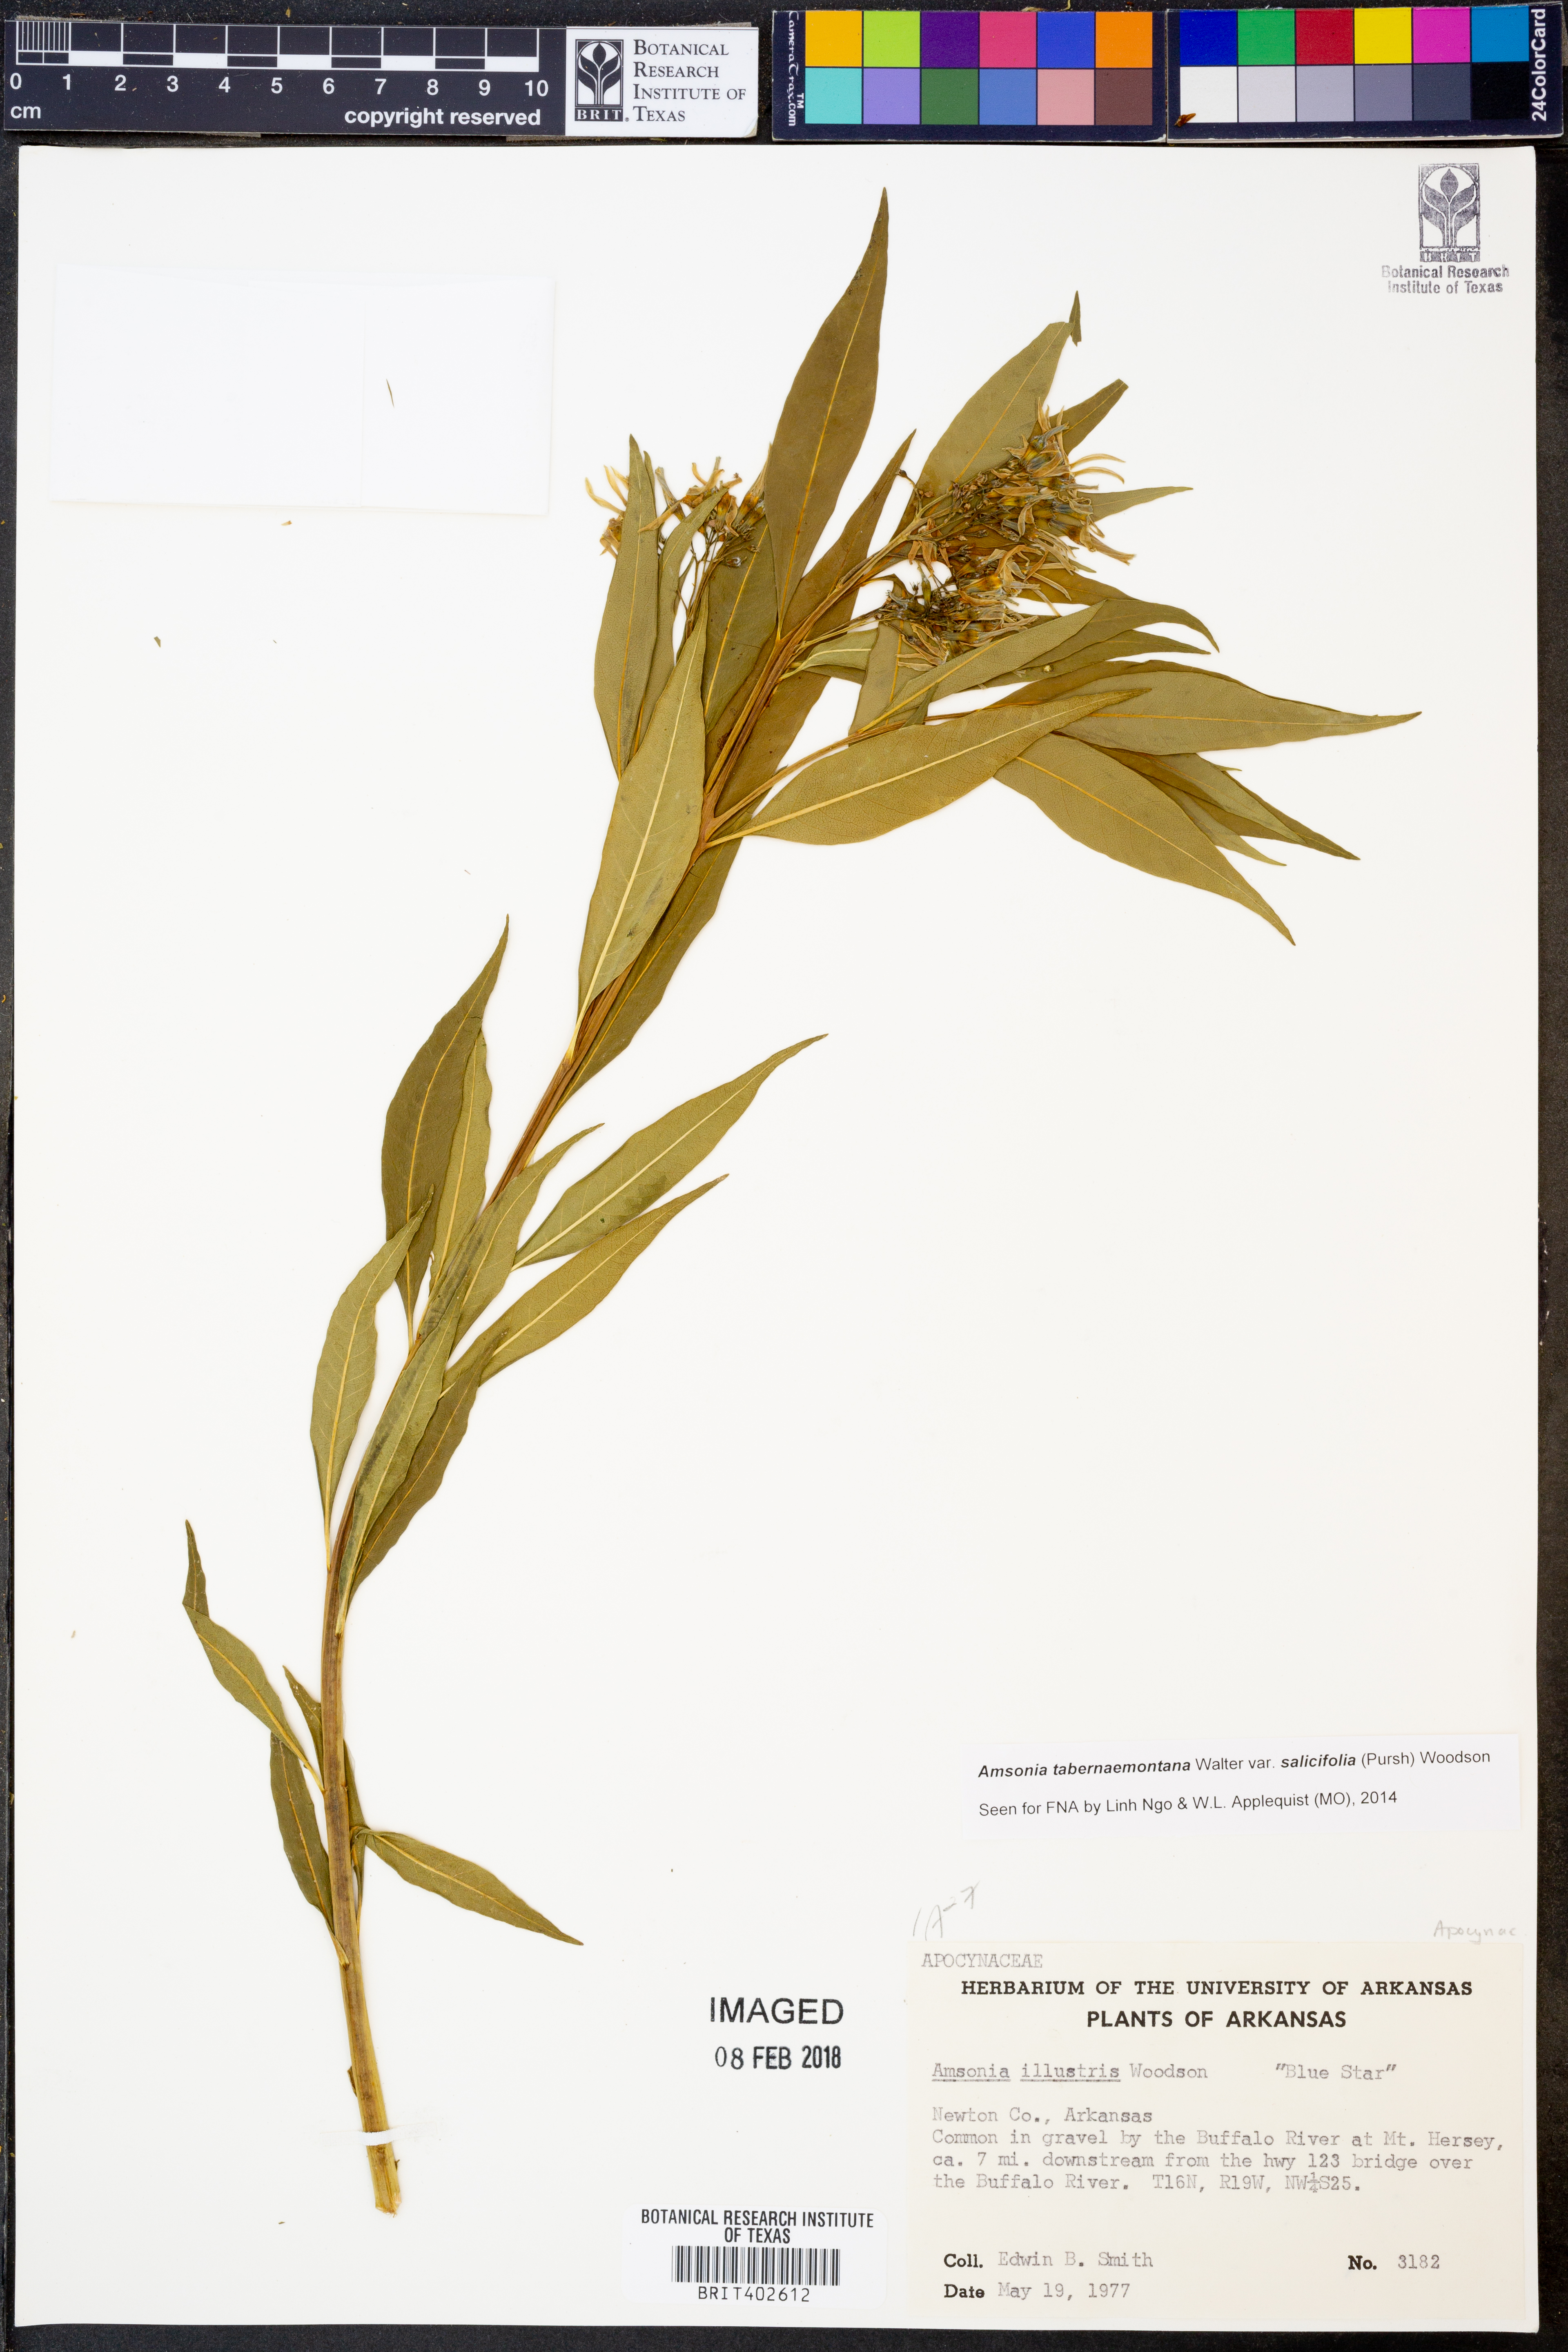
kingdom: Plantae
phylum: Tracheophyta
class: Magnoliopsida
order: Gentianales
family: Apocynaceae
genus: Amsonia
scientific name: Amsonia tabernaemontana
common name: Texas-star
